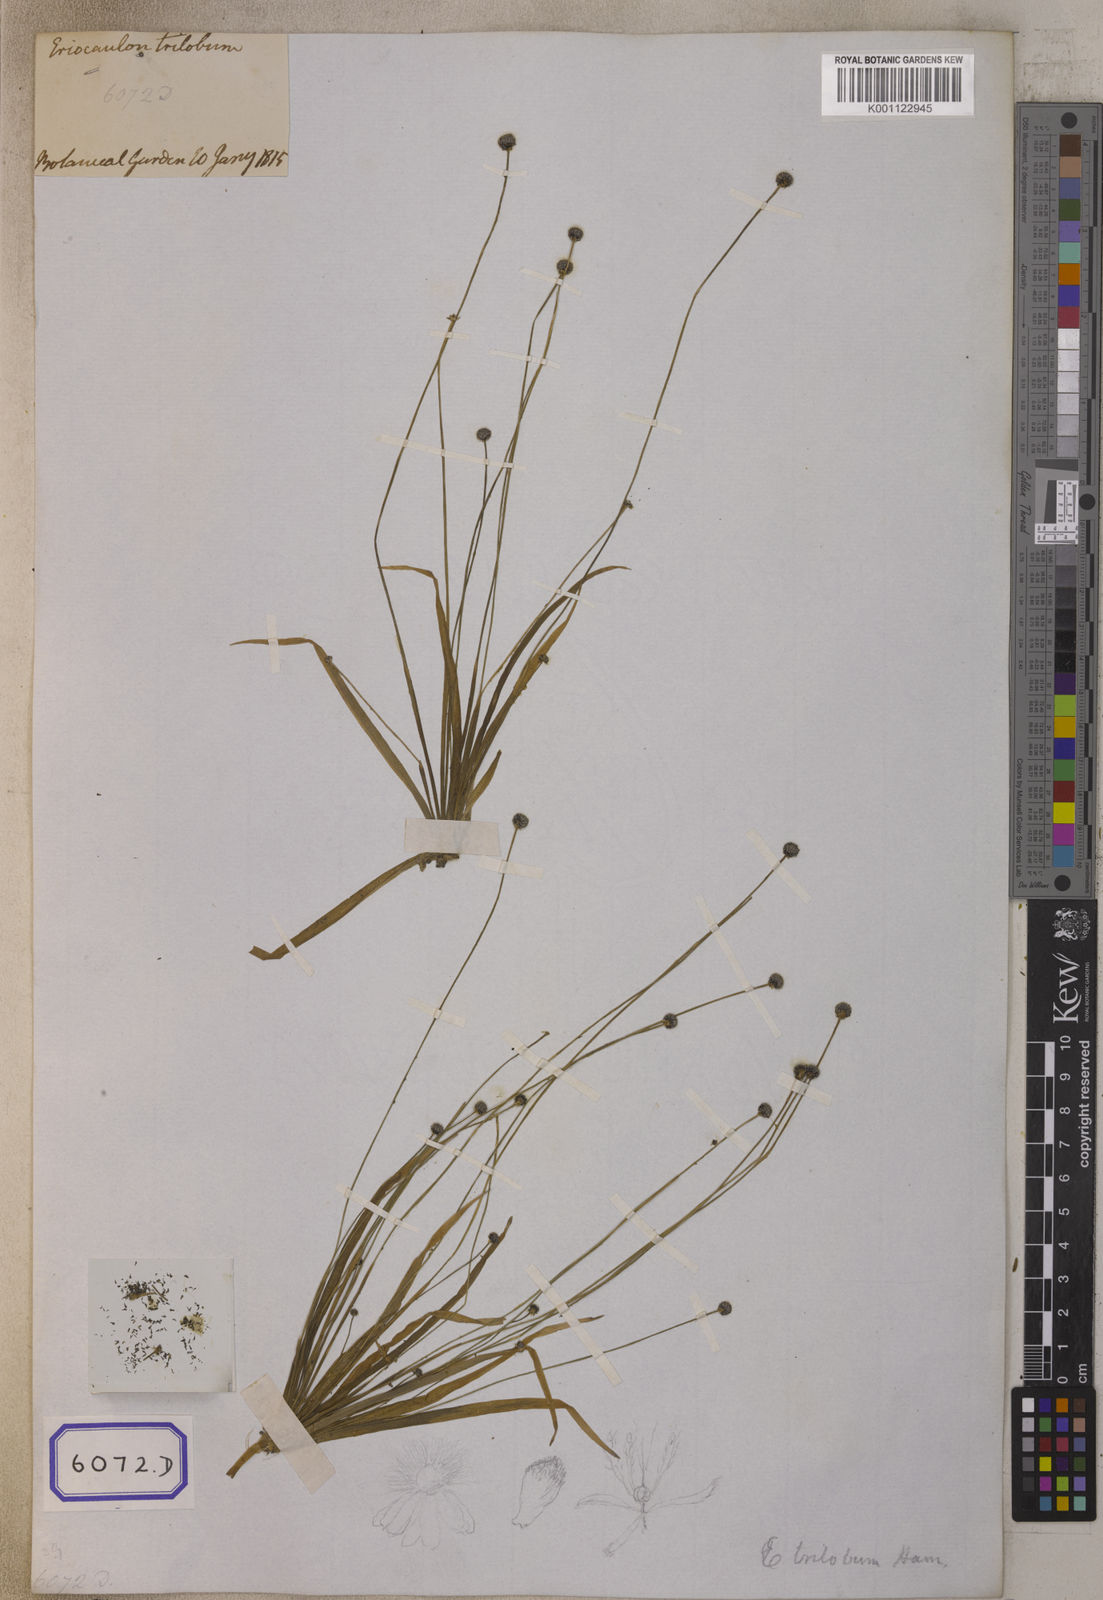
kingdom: Plantae
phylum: Tracheophyta
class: Liliopsida
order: Poales
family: Eriocaulaceae
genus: Eriocaulon
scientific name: Eriocaulon quinquangulare
